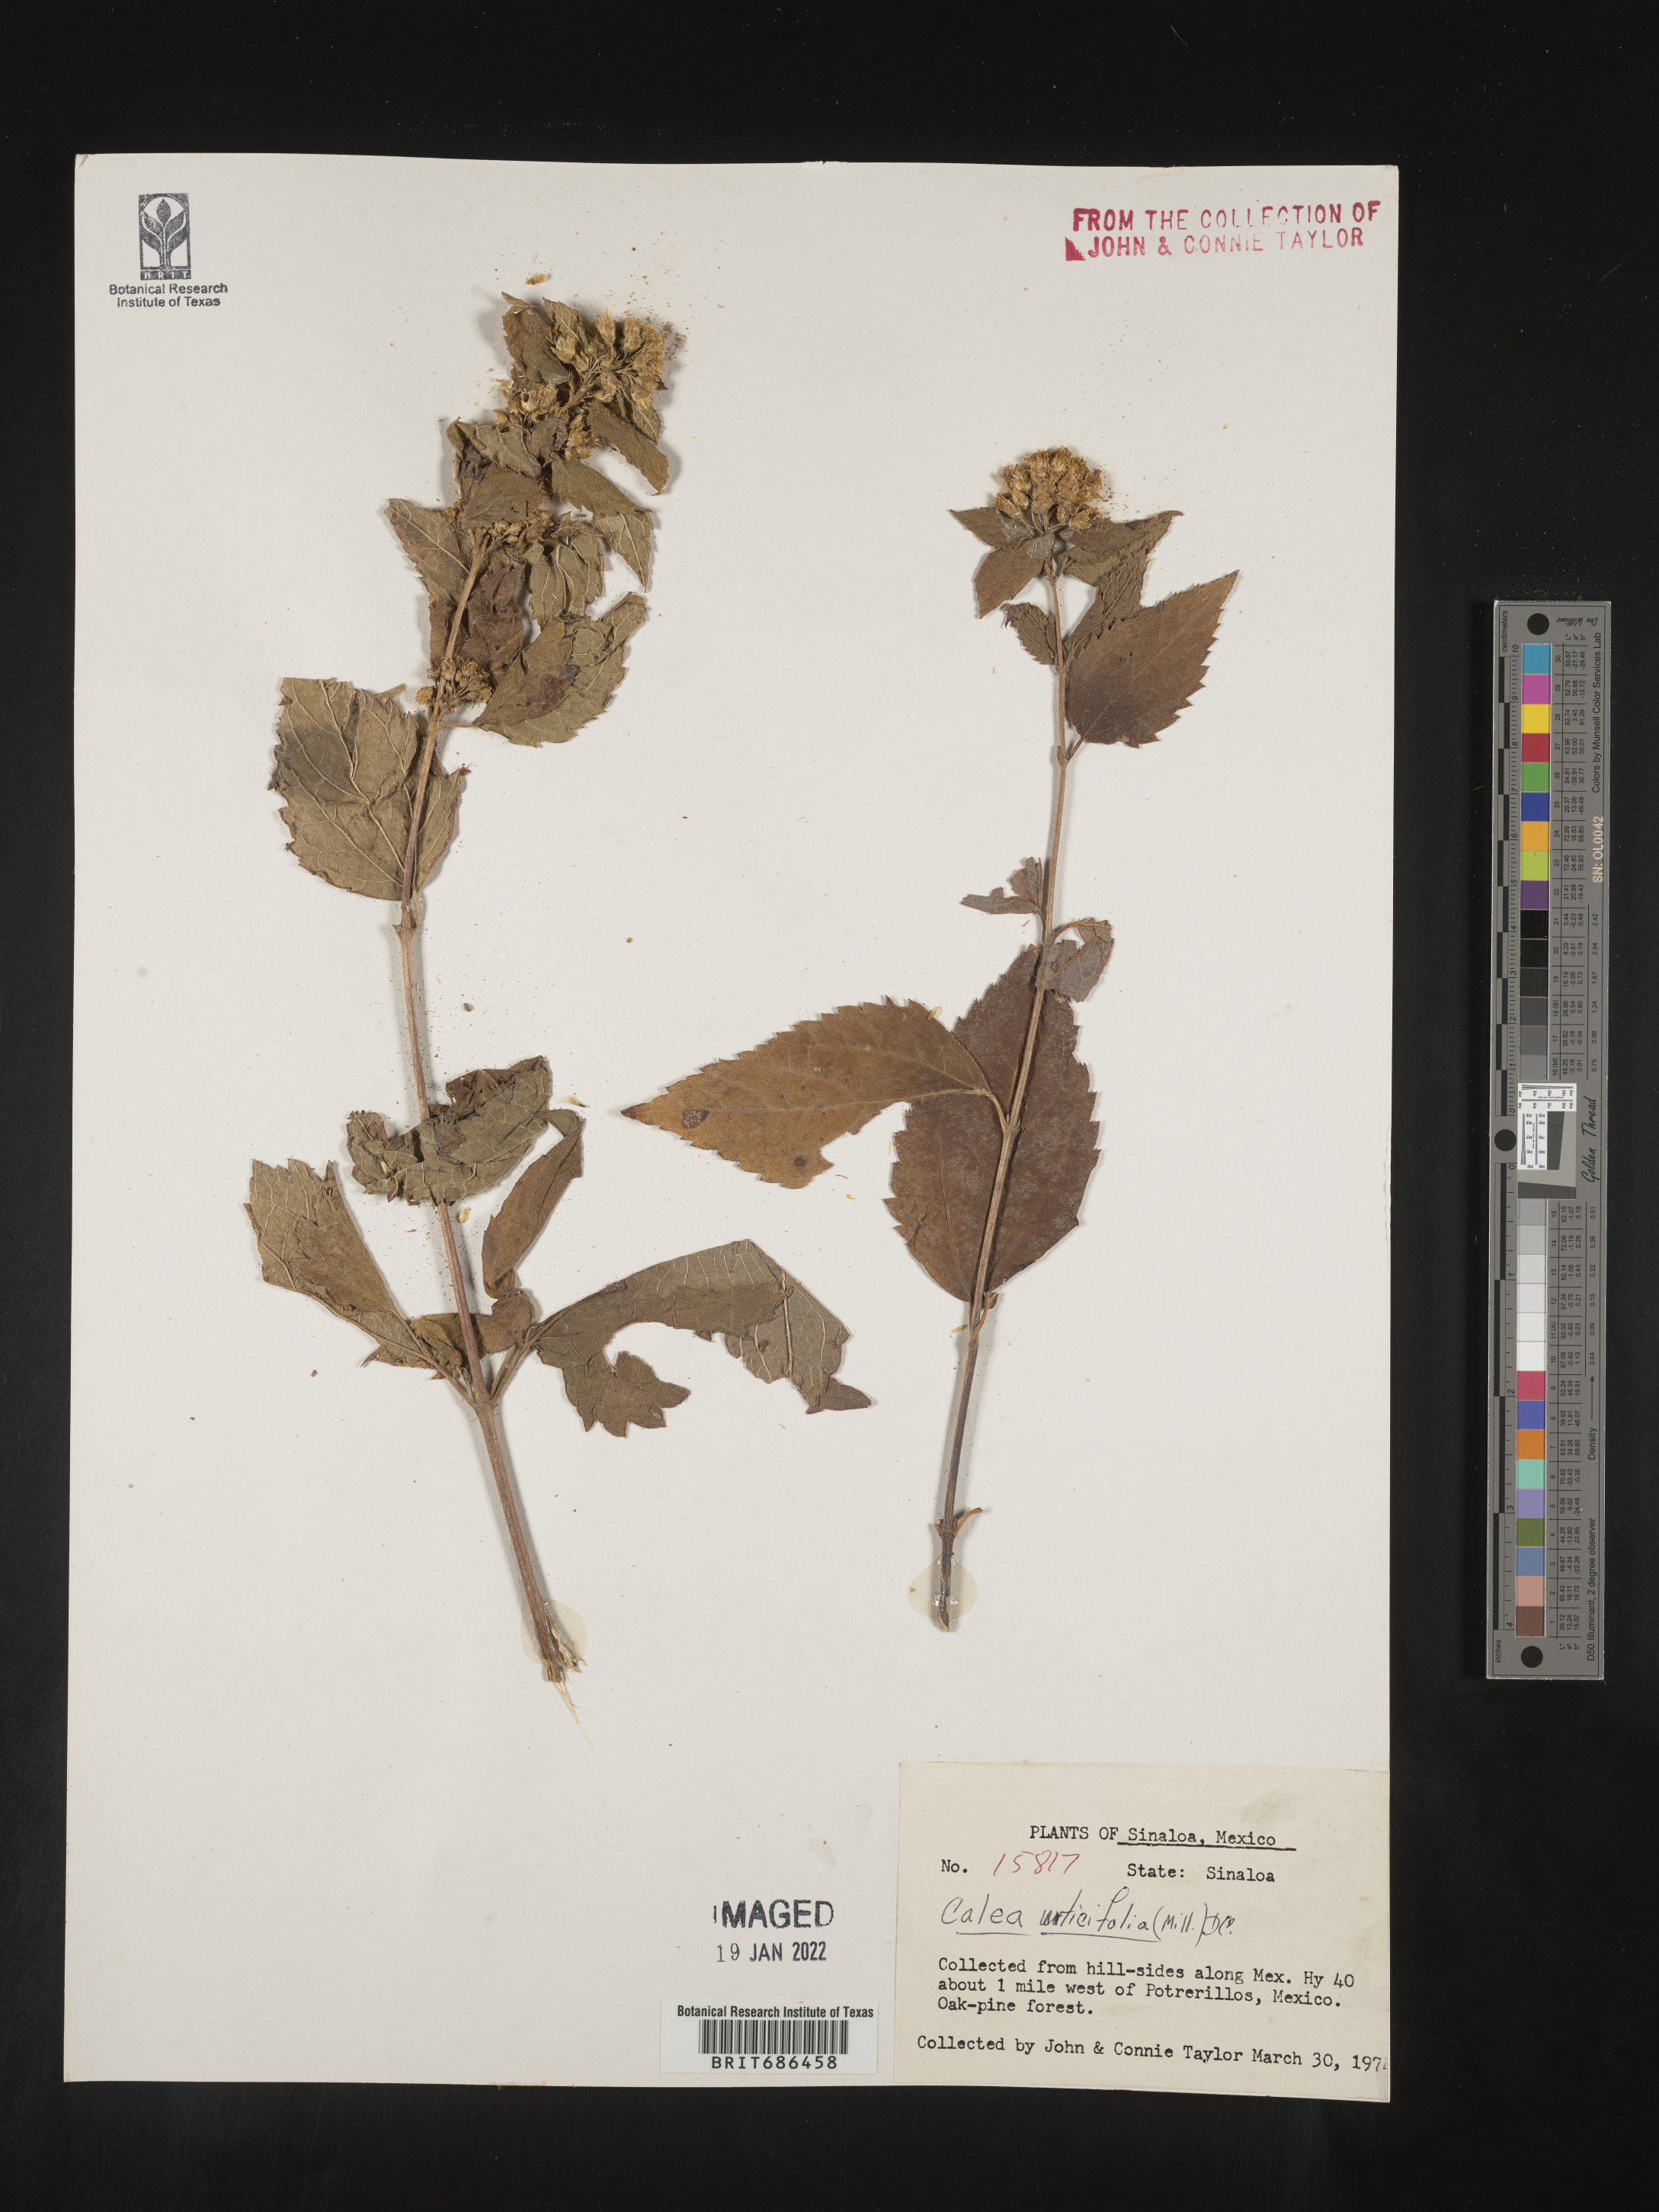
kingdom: Plantae
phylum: Tracheophyta
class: Magnoliopsida
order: Asterales
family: Asteraceae
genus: Calea
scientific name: Calea
